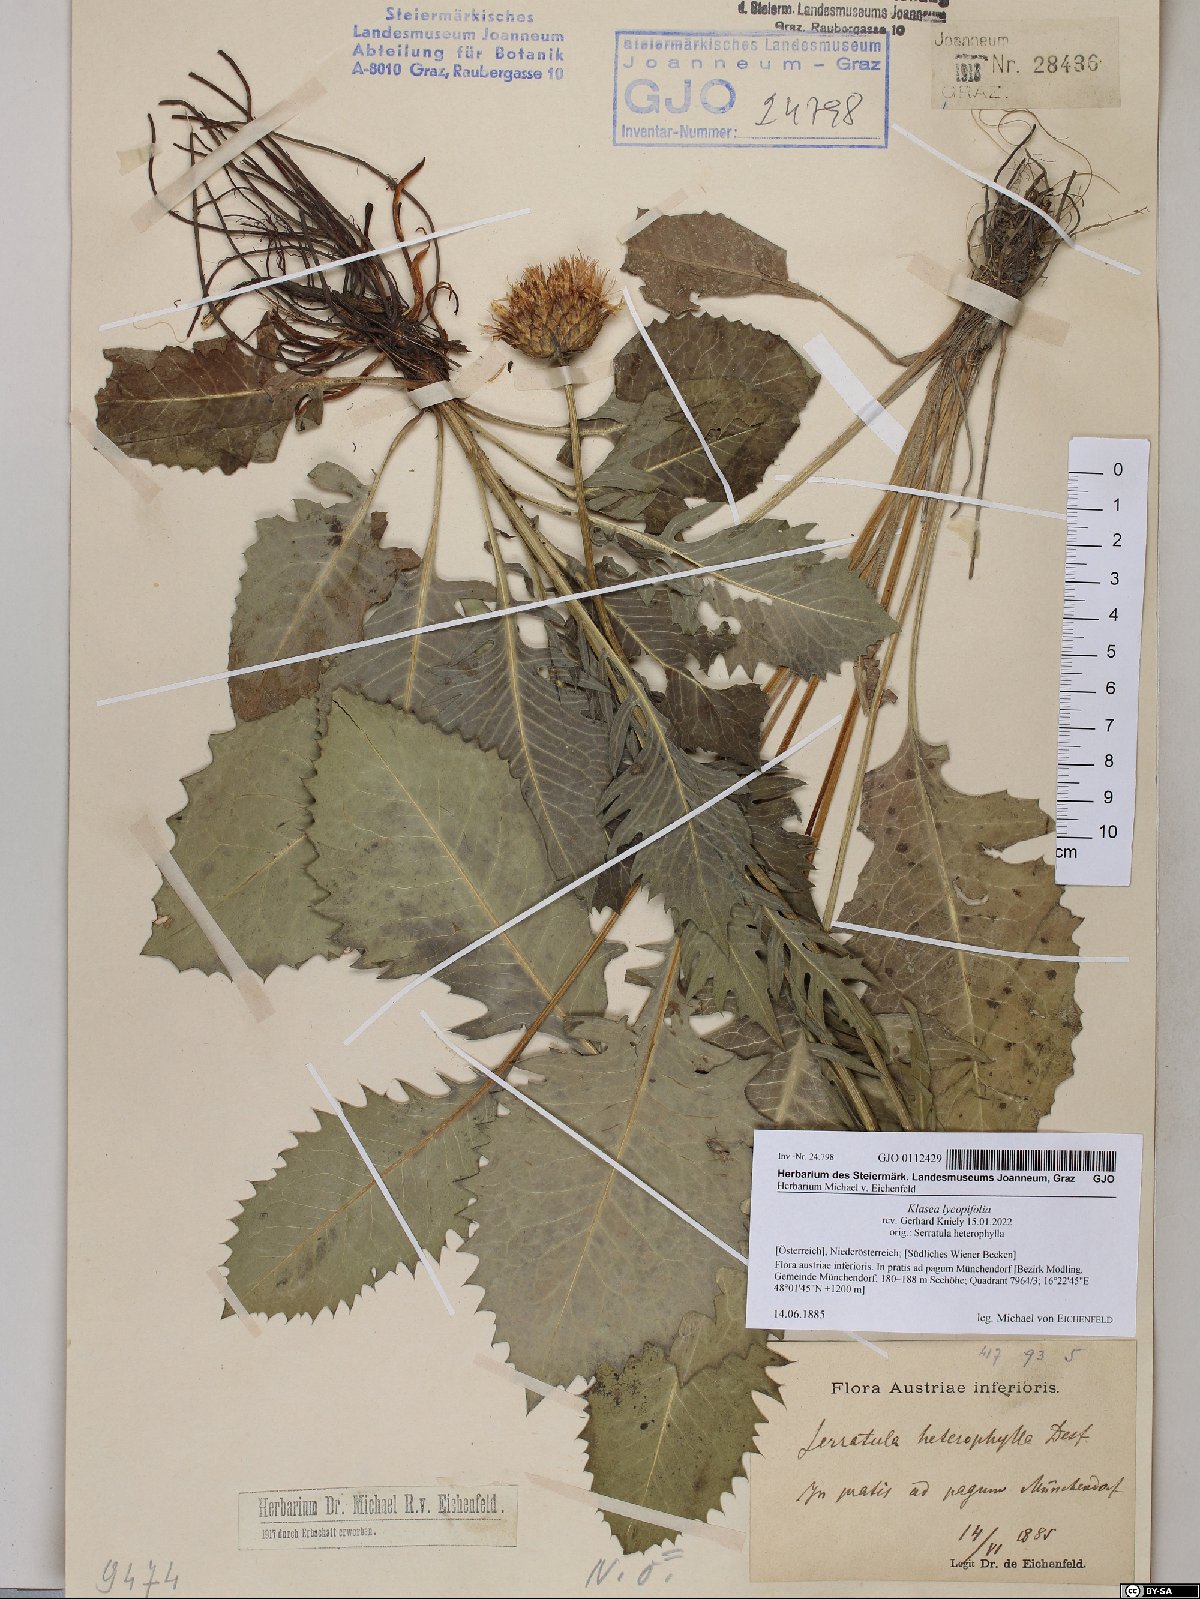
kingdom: Plantae
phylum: Tracheophyta
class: Magnoliopsida
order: Asterales
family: Asteraceae
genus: Klasea
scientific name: Klasea lycopifolia
